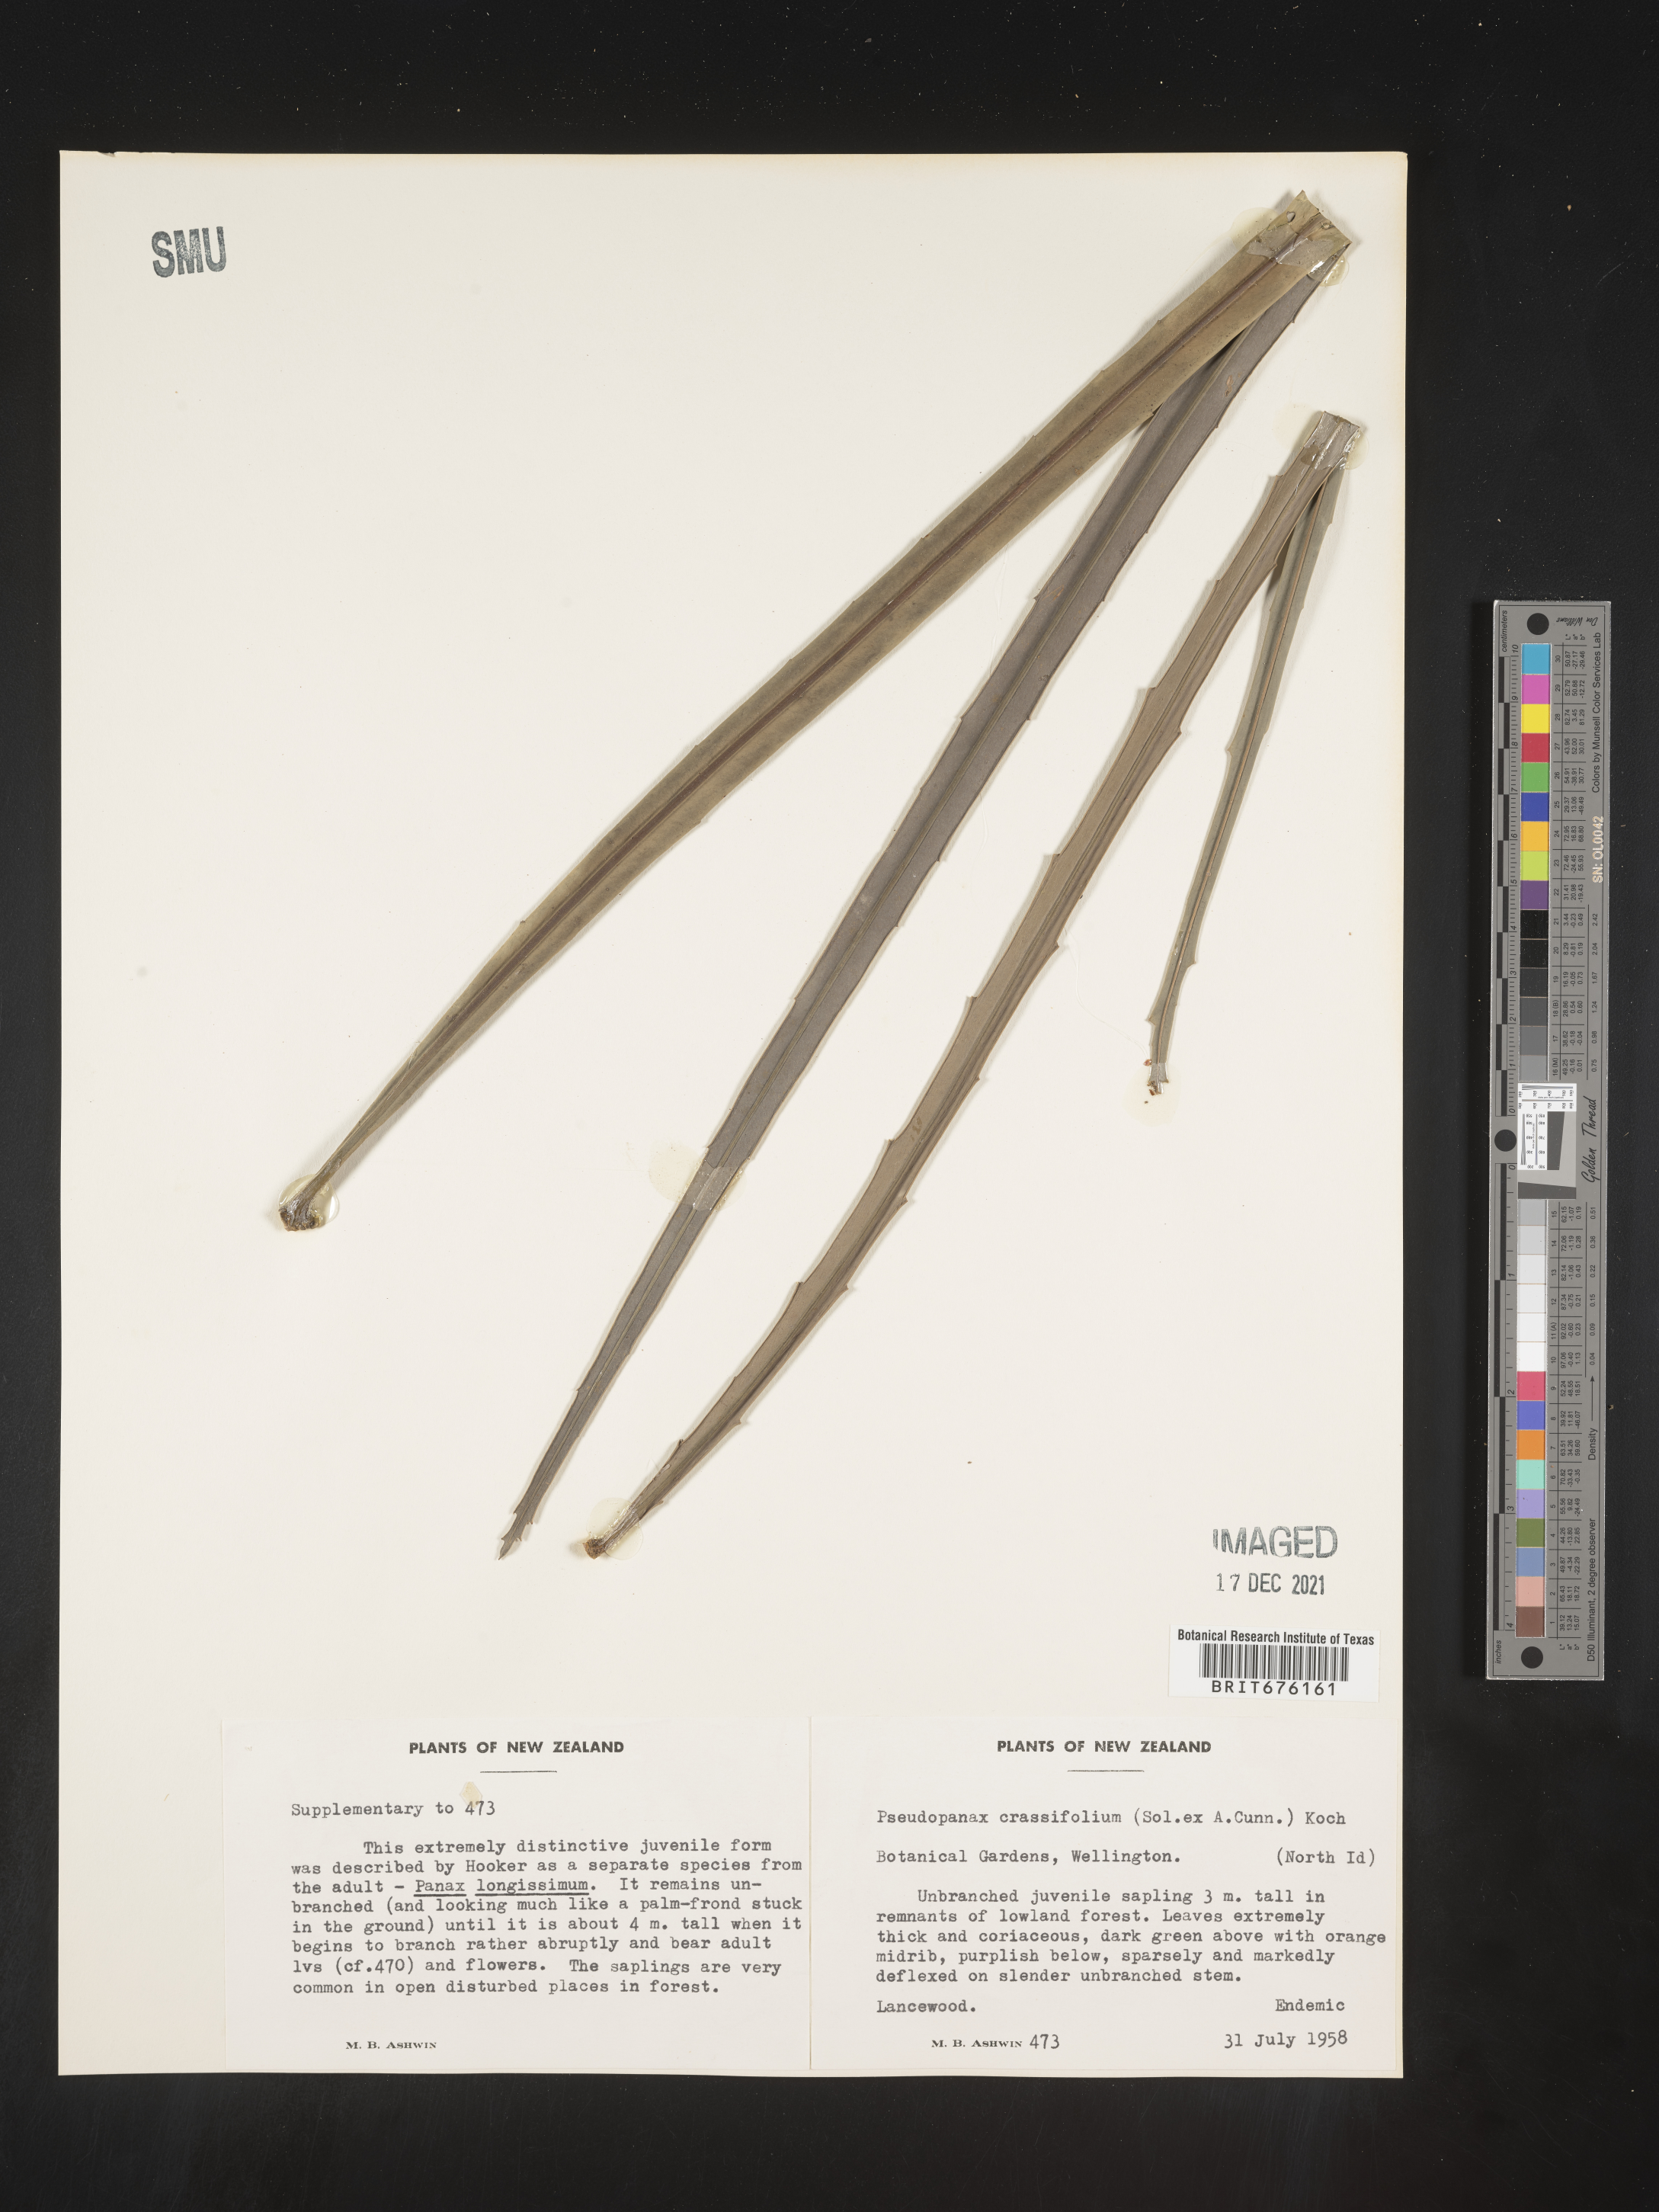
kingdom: Plantae
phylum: Tracheophyta
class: Magnoliopsida
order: Apiales
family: Araliaceae
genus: Pseudopanax
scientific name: Pseudopanax crassifolius
